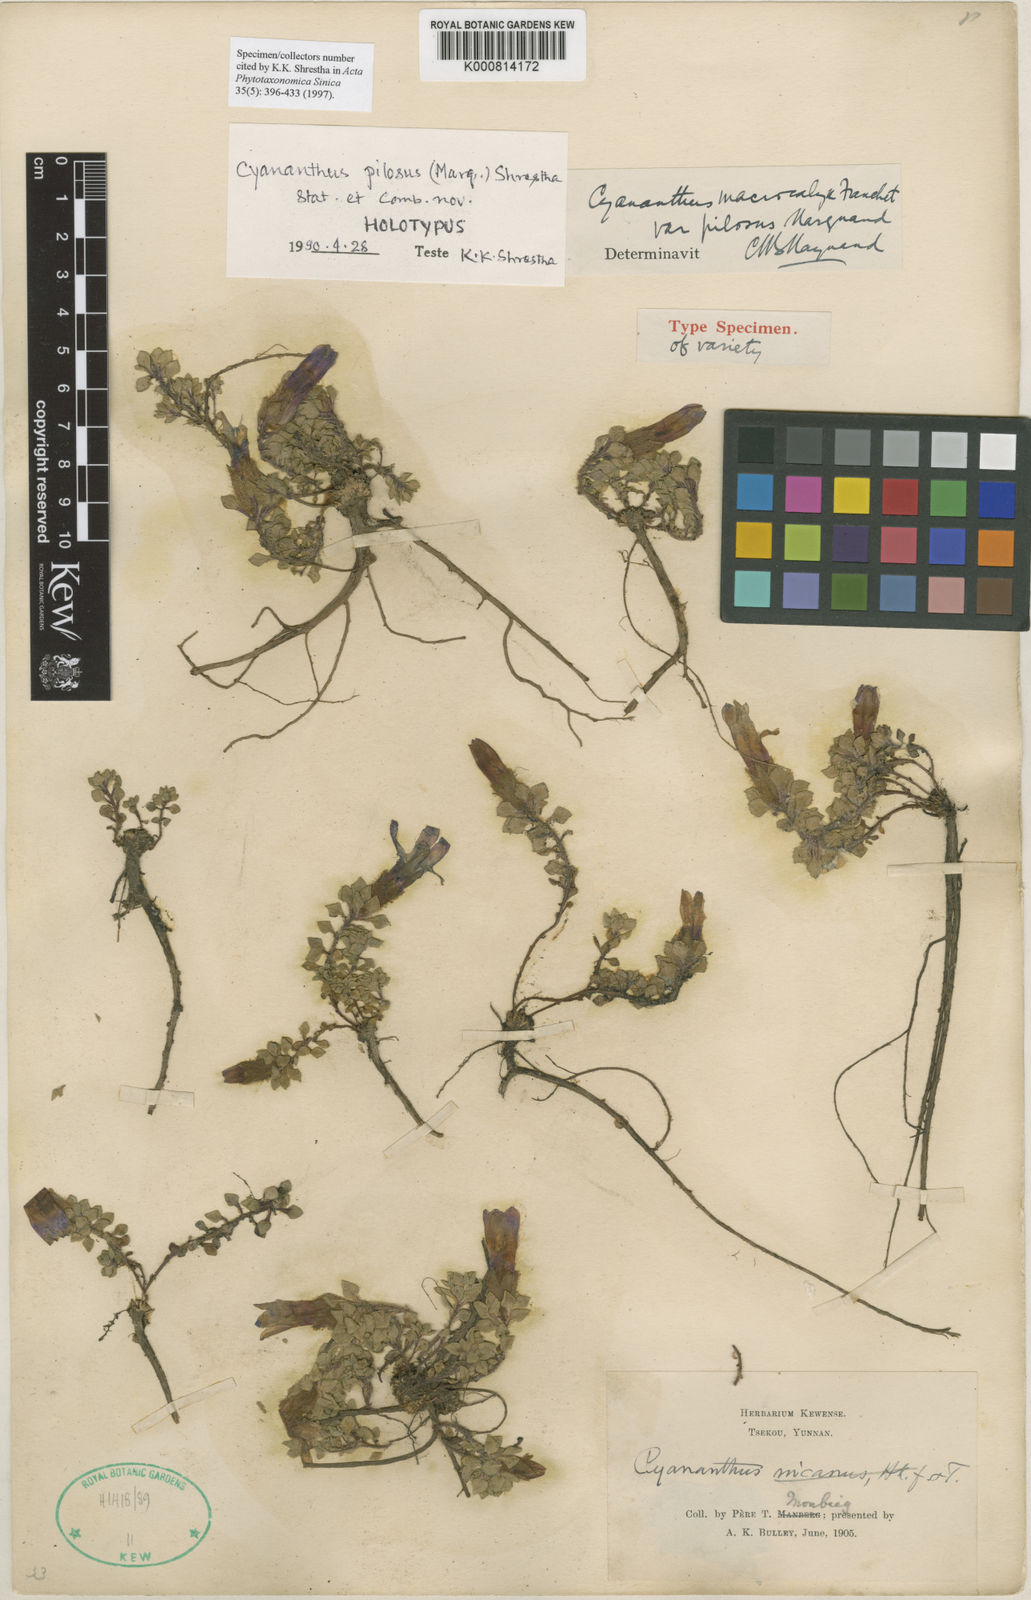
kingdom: Plantae
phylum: Tracheophyta
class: Magnoliopsida
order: Asterales
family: Campanulaceae
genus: Cyananthus
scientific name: Cyananthus macrocalyx
